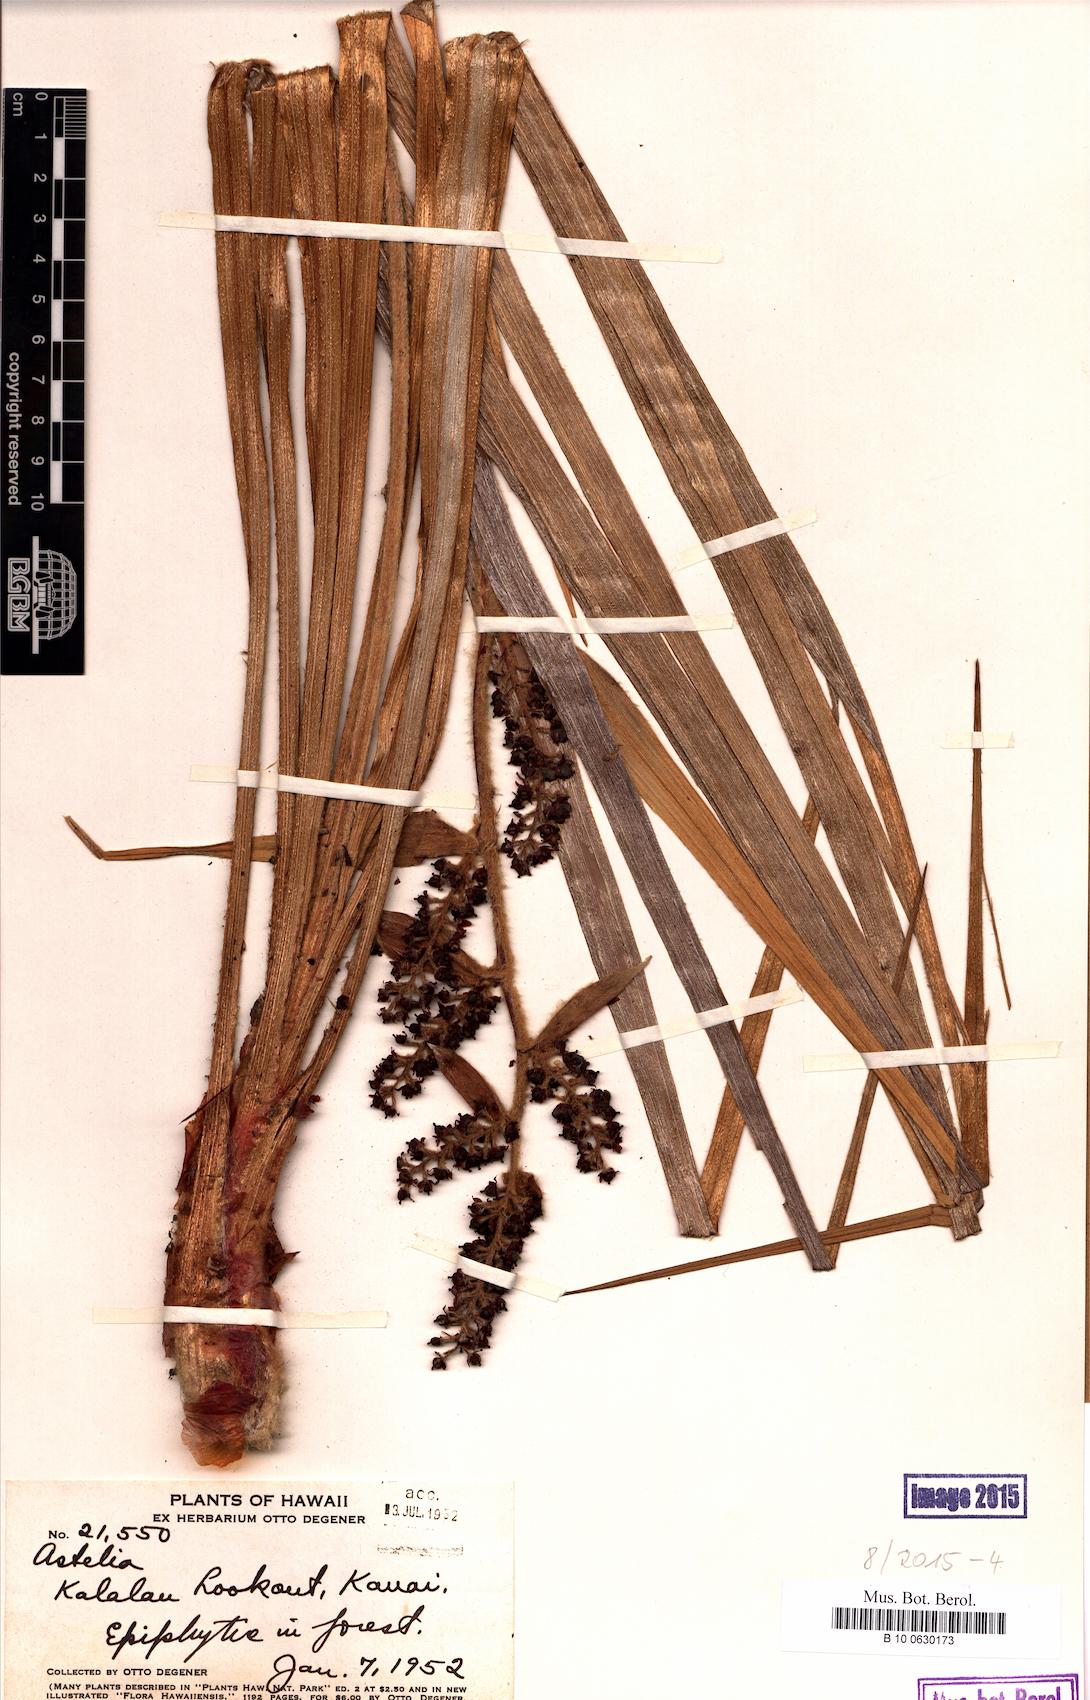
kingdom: Plantae
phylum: Tracheophyta
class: Liliopsida
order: Asparagales
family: Asteliaceae
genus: Astelia
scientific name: Astelia
